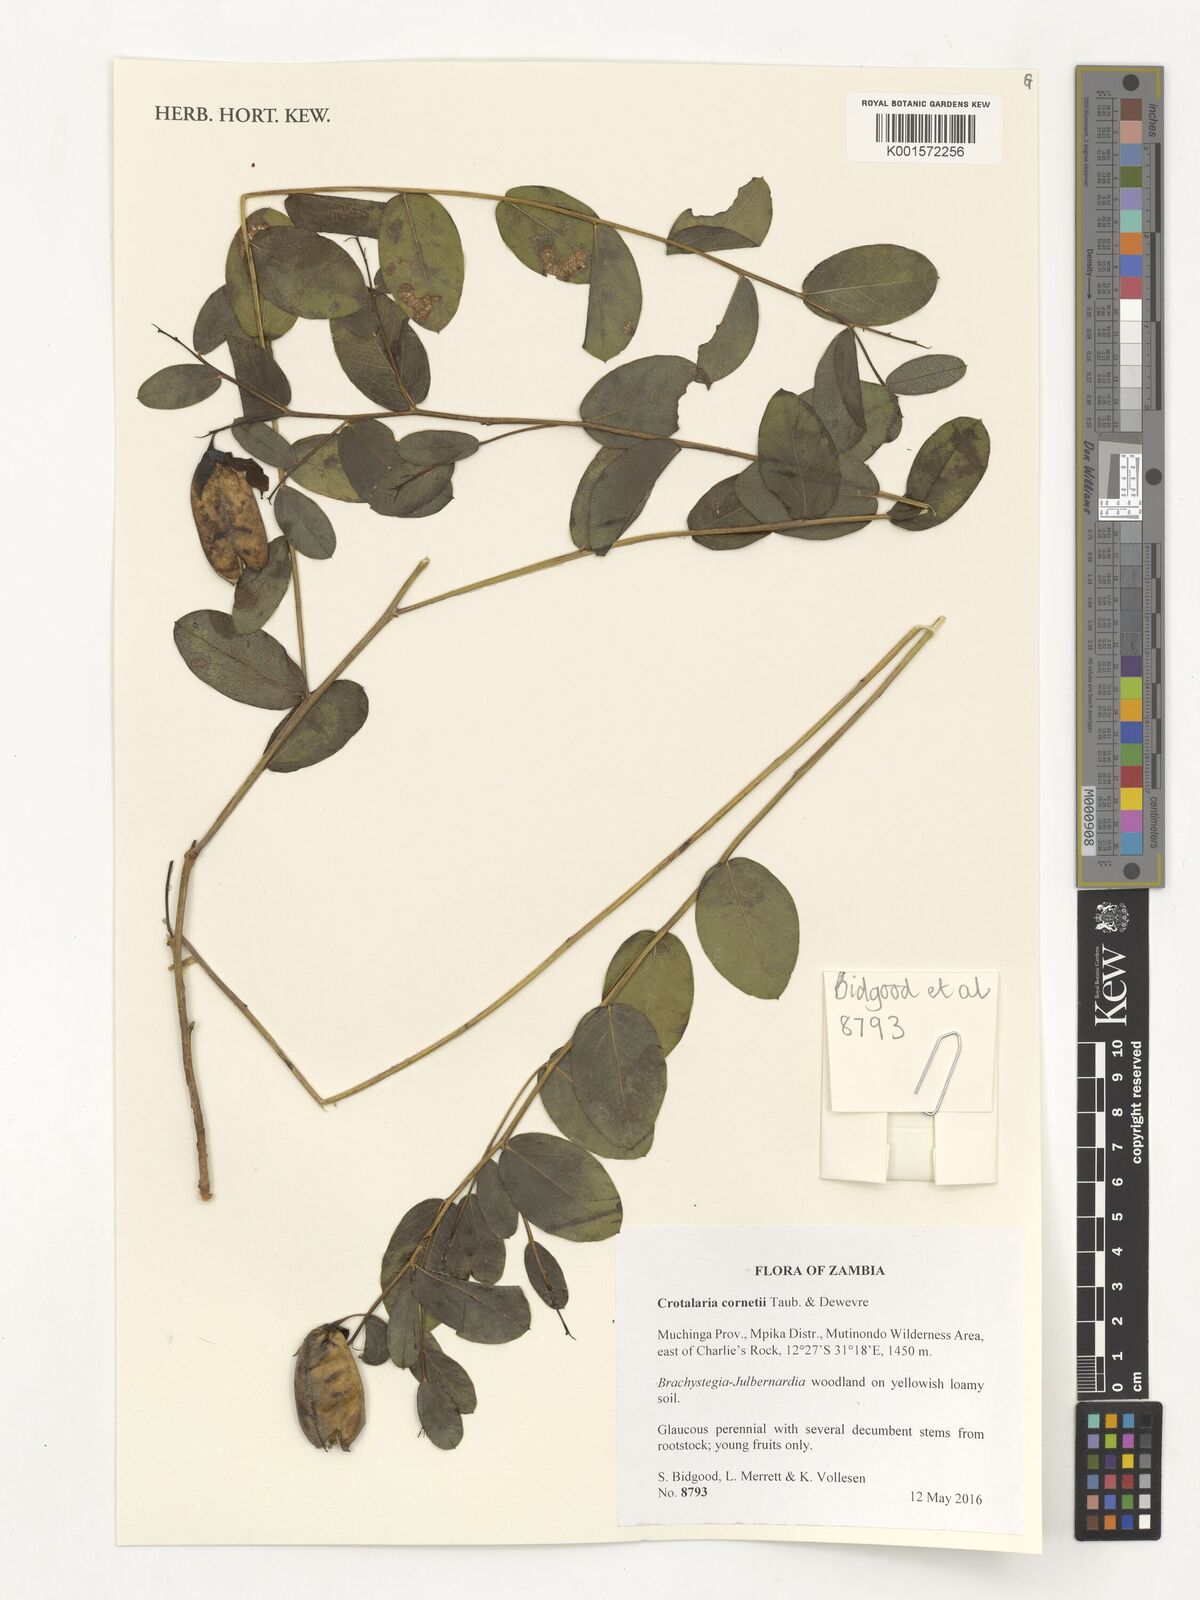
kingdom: Plantae
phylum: Tracheophyta
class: Magnoliopsida
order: Fabales
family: Fabaceae
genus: Crotalaria
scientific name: Crotalaria cornetii
